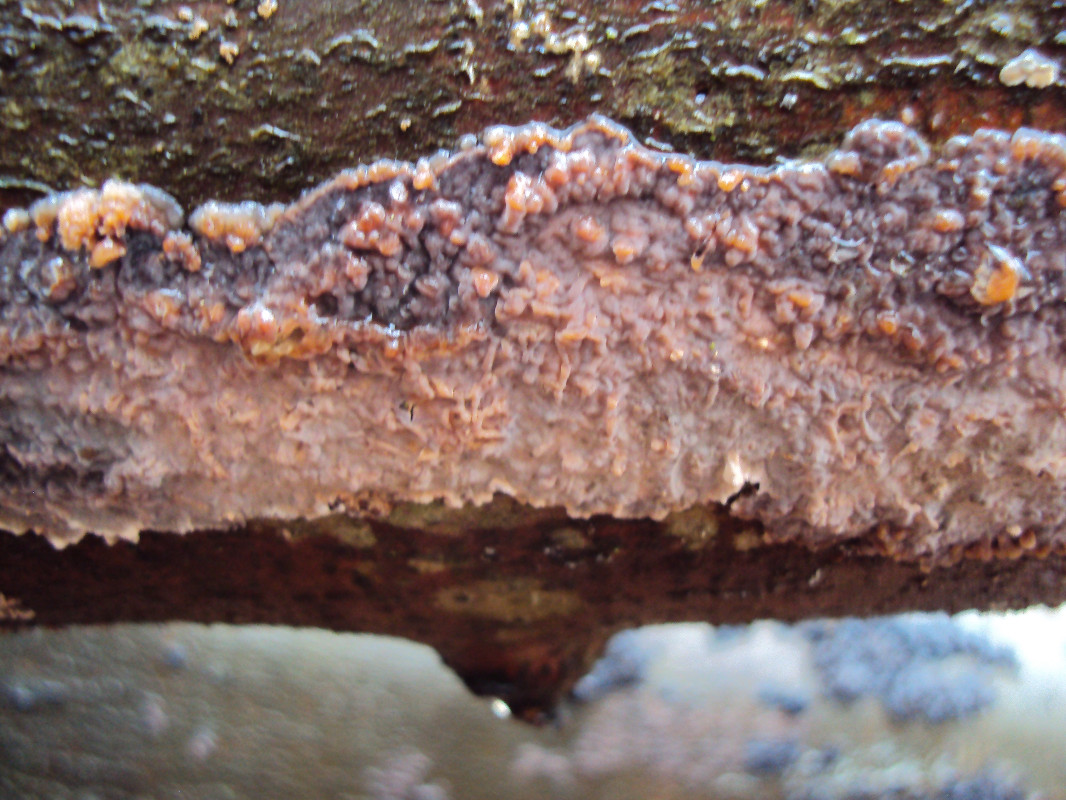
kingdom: Fungi
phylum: Basidiomycota
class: Agaricomycetes
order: Polyporales
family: Meruliaceae
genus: Phlebia
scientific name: Phlebia radiata
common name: stråle-åresvamp
